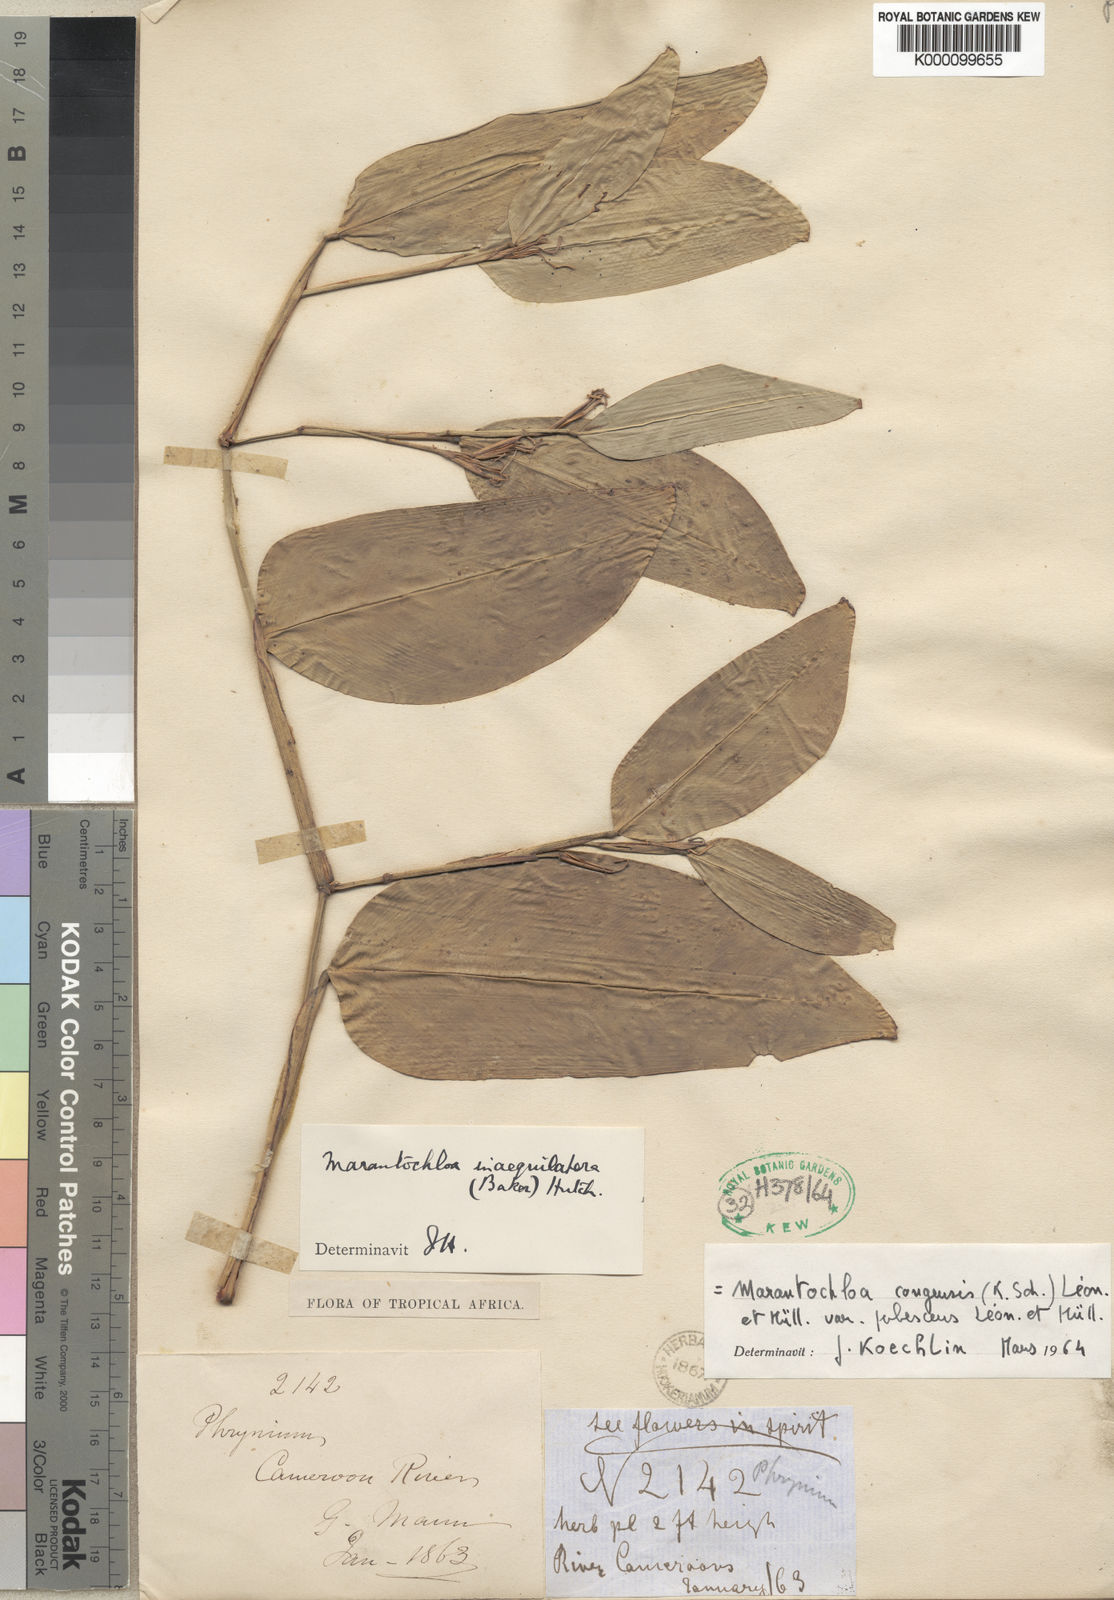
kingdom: Plantae
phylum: Tracheophyta
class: Liliopsida
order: Zingiberales
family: Marantaceae
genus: Marantochloa
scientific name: Marantochloa congensis
